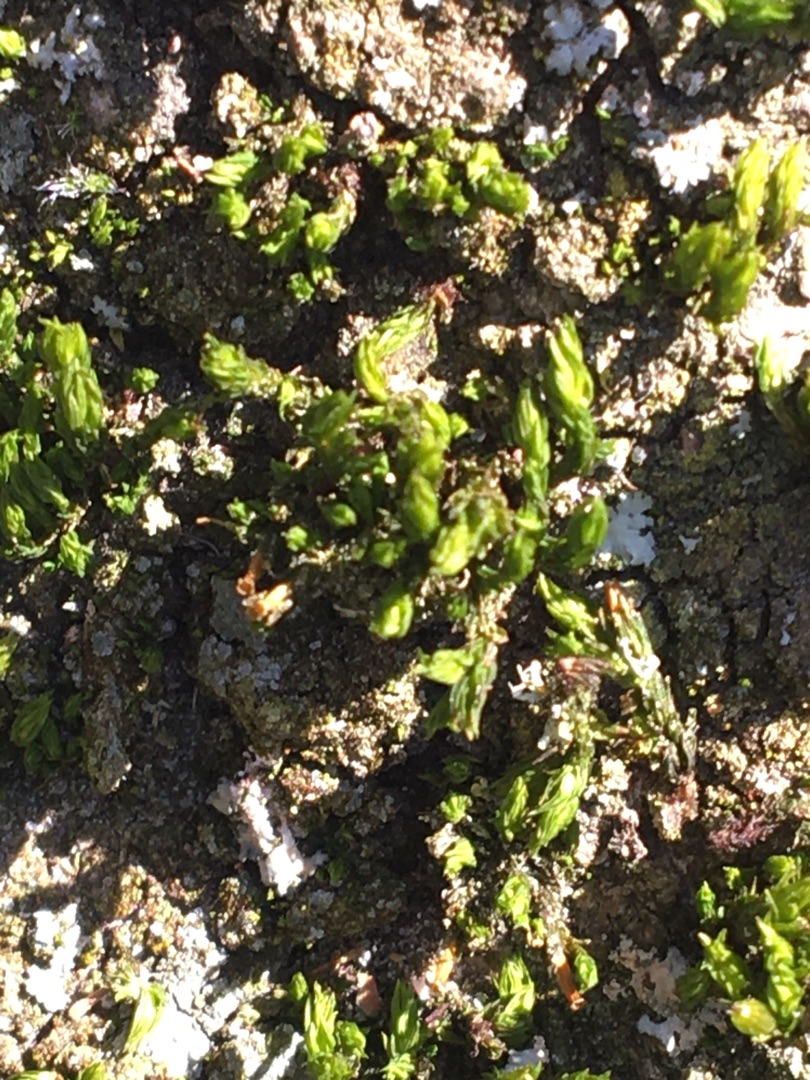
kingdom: Plantae
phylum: Bryophyta
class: Bryopsida
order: Orthotrichales
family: Orthotrichaceae
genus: Orthotrichum
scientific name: Orthotrichum
